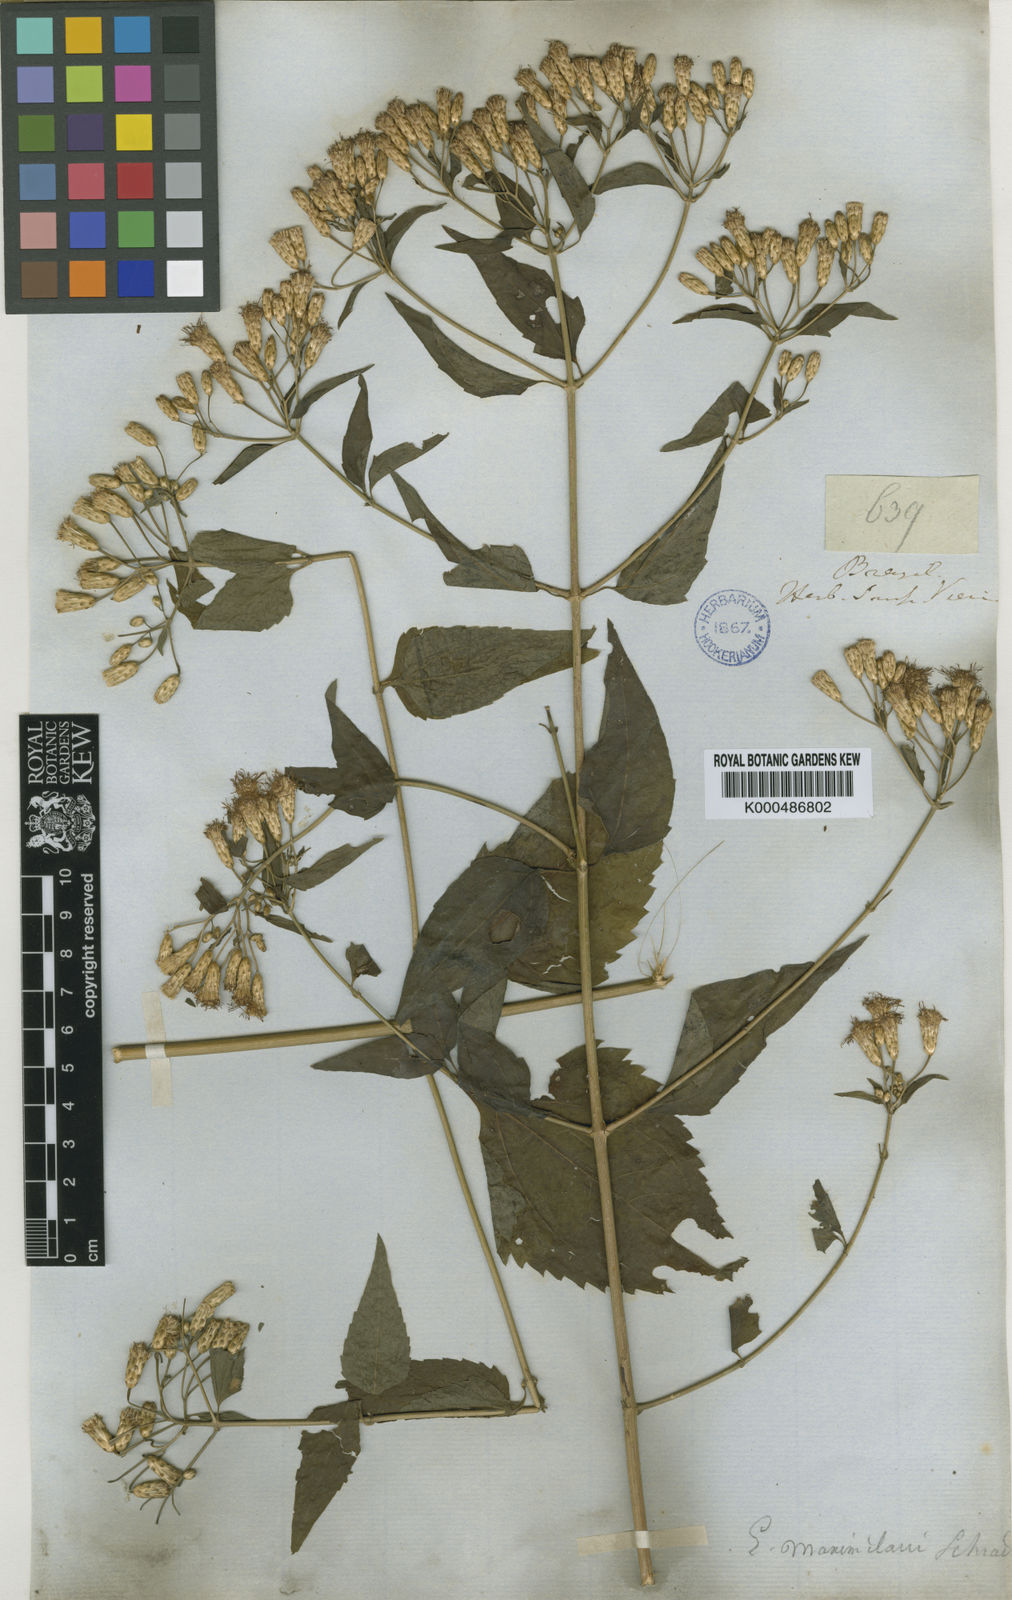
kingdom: Plantae
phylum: Tracheophyta
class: Magnoliopsida
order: Asterales
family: Asteraceae
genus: Chromolaena
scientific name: Chromolaena maximiliani
